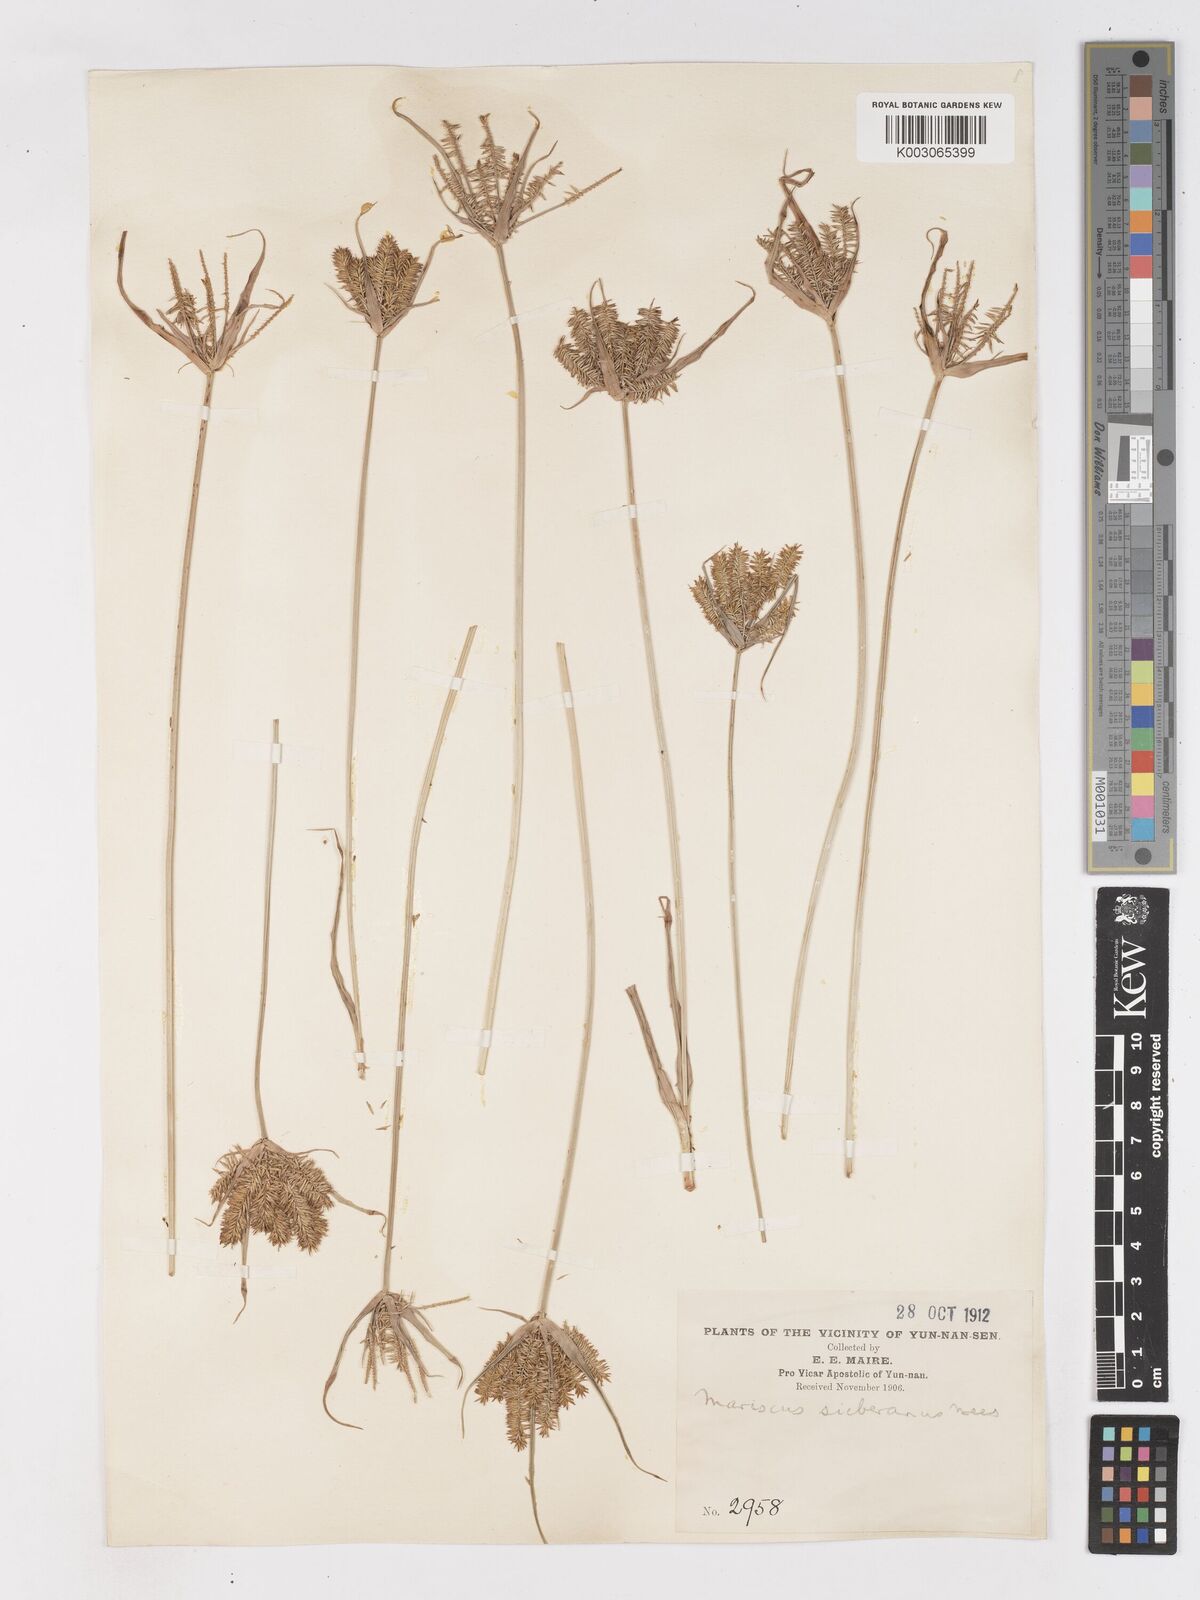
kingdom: Plantae
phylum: Tracheophyta
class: Liliopsida
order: Poales
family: Cyperaceae
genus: Cyperus
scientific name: Cyperus cyperoides
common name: Pacific island flat sedge
